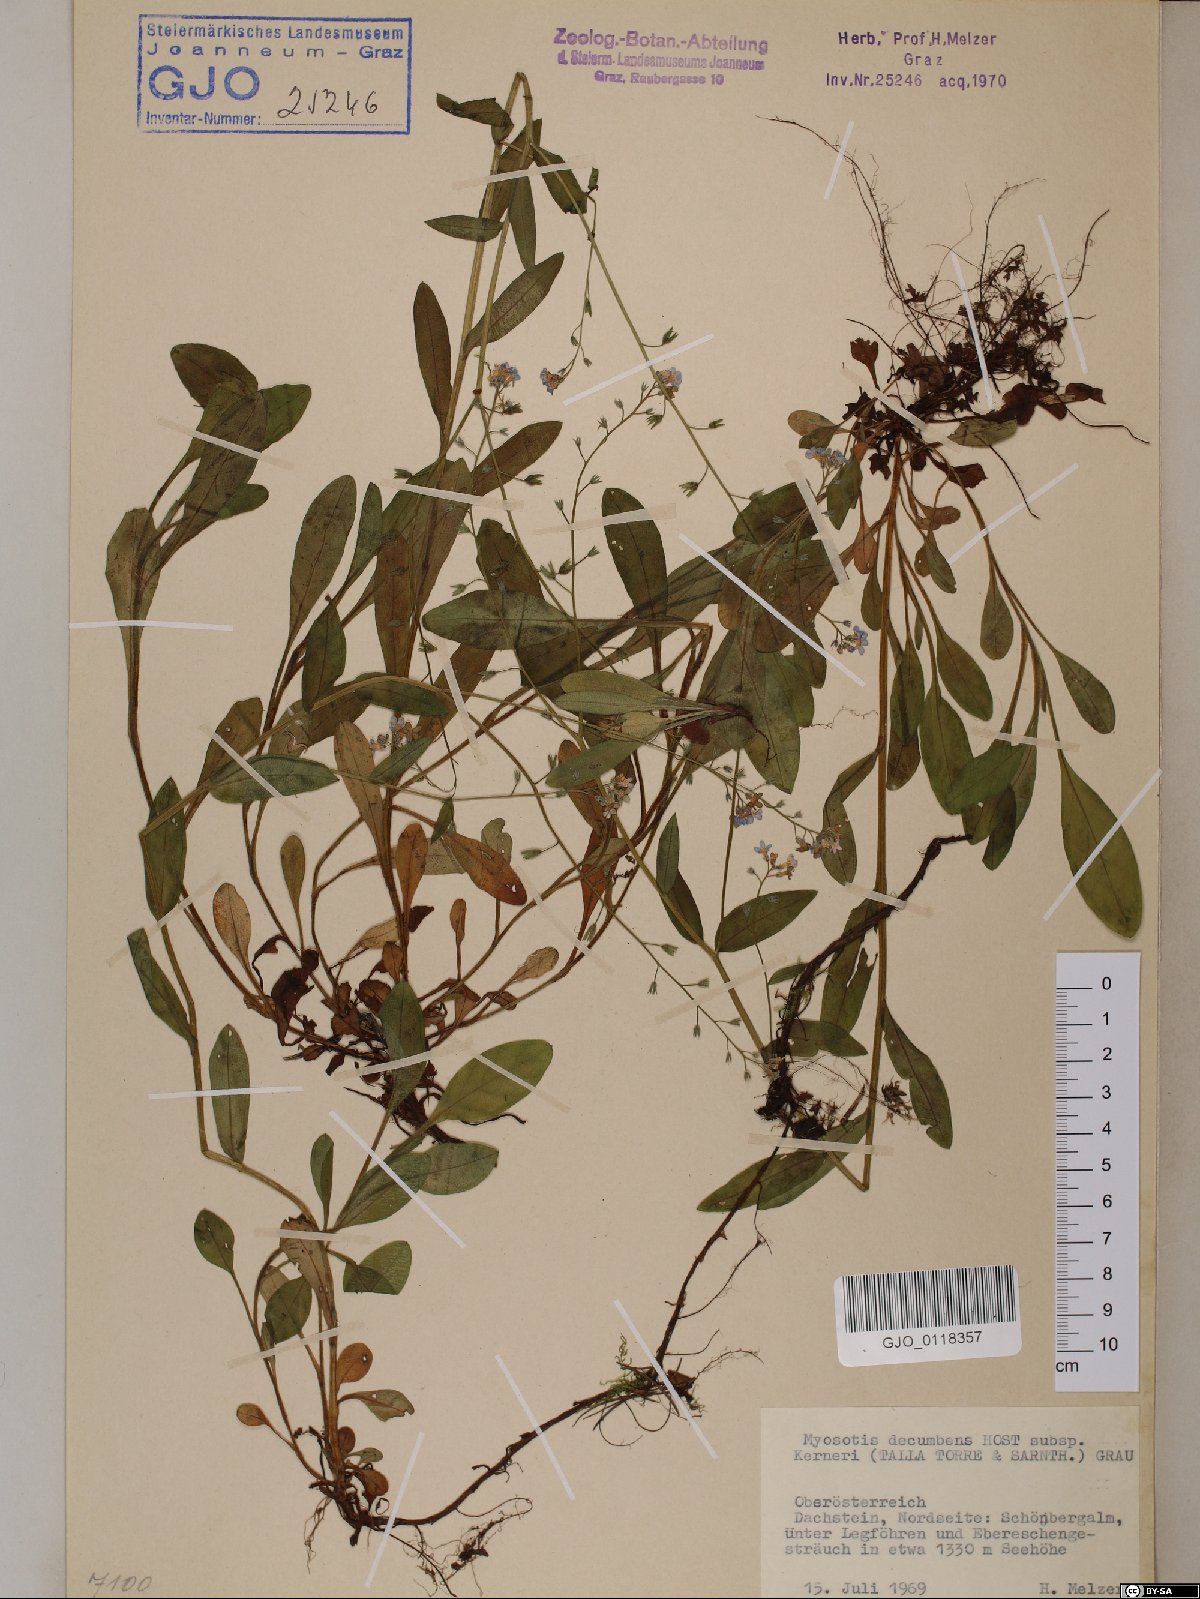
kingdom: Plantae
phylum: Tracheophyta
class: Magnoliopsida
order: Boraginales
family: Boraginaceae
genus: Myosotis
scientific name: Myosotis decumbens
